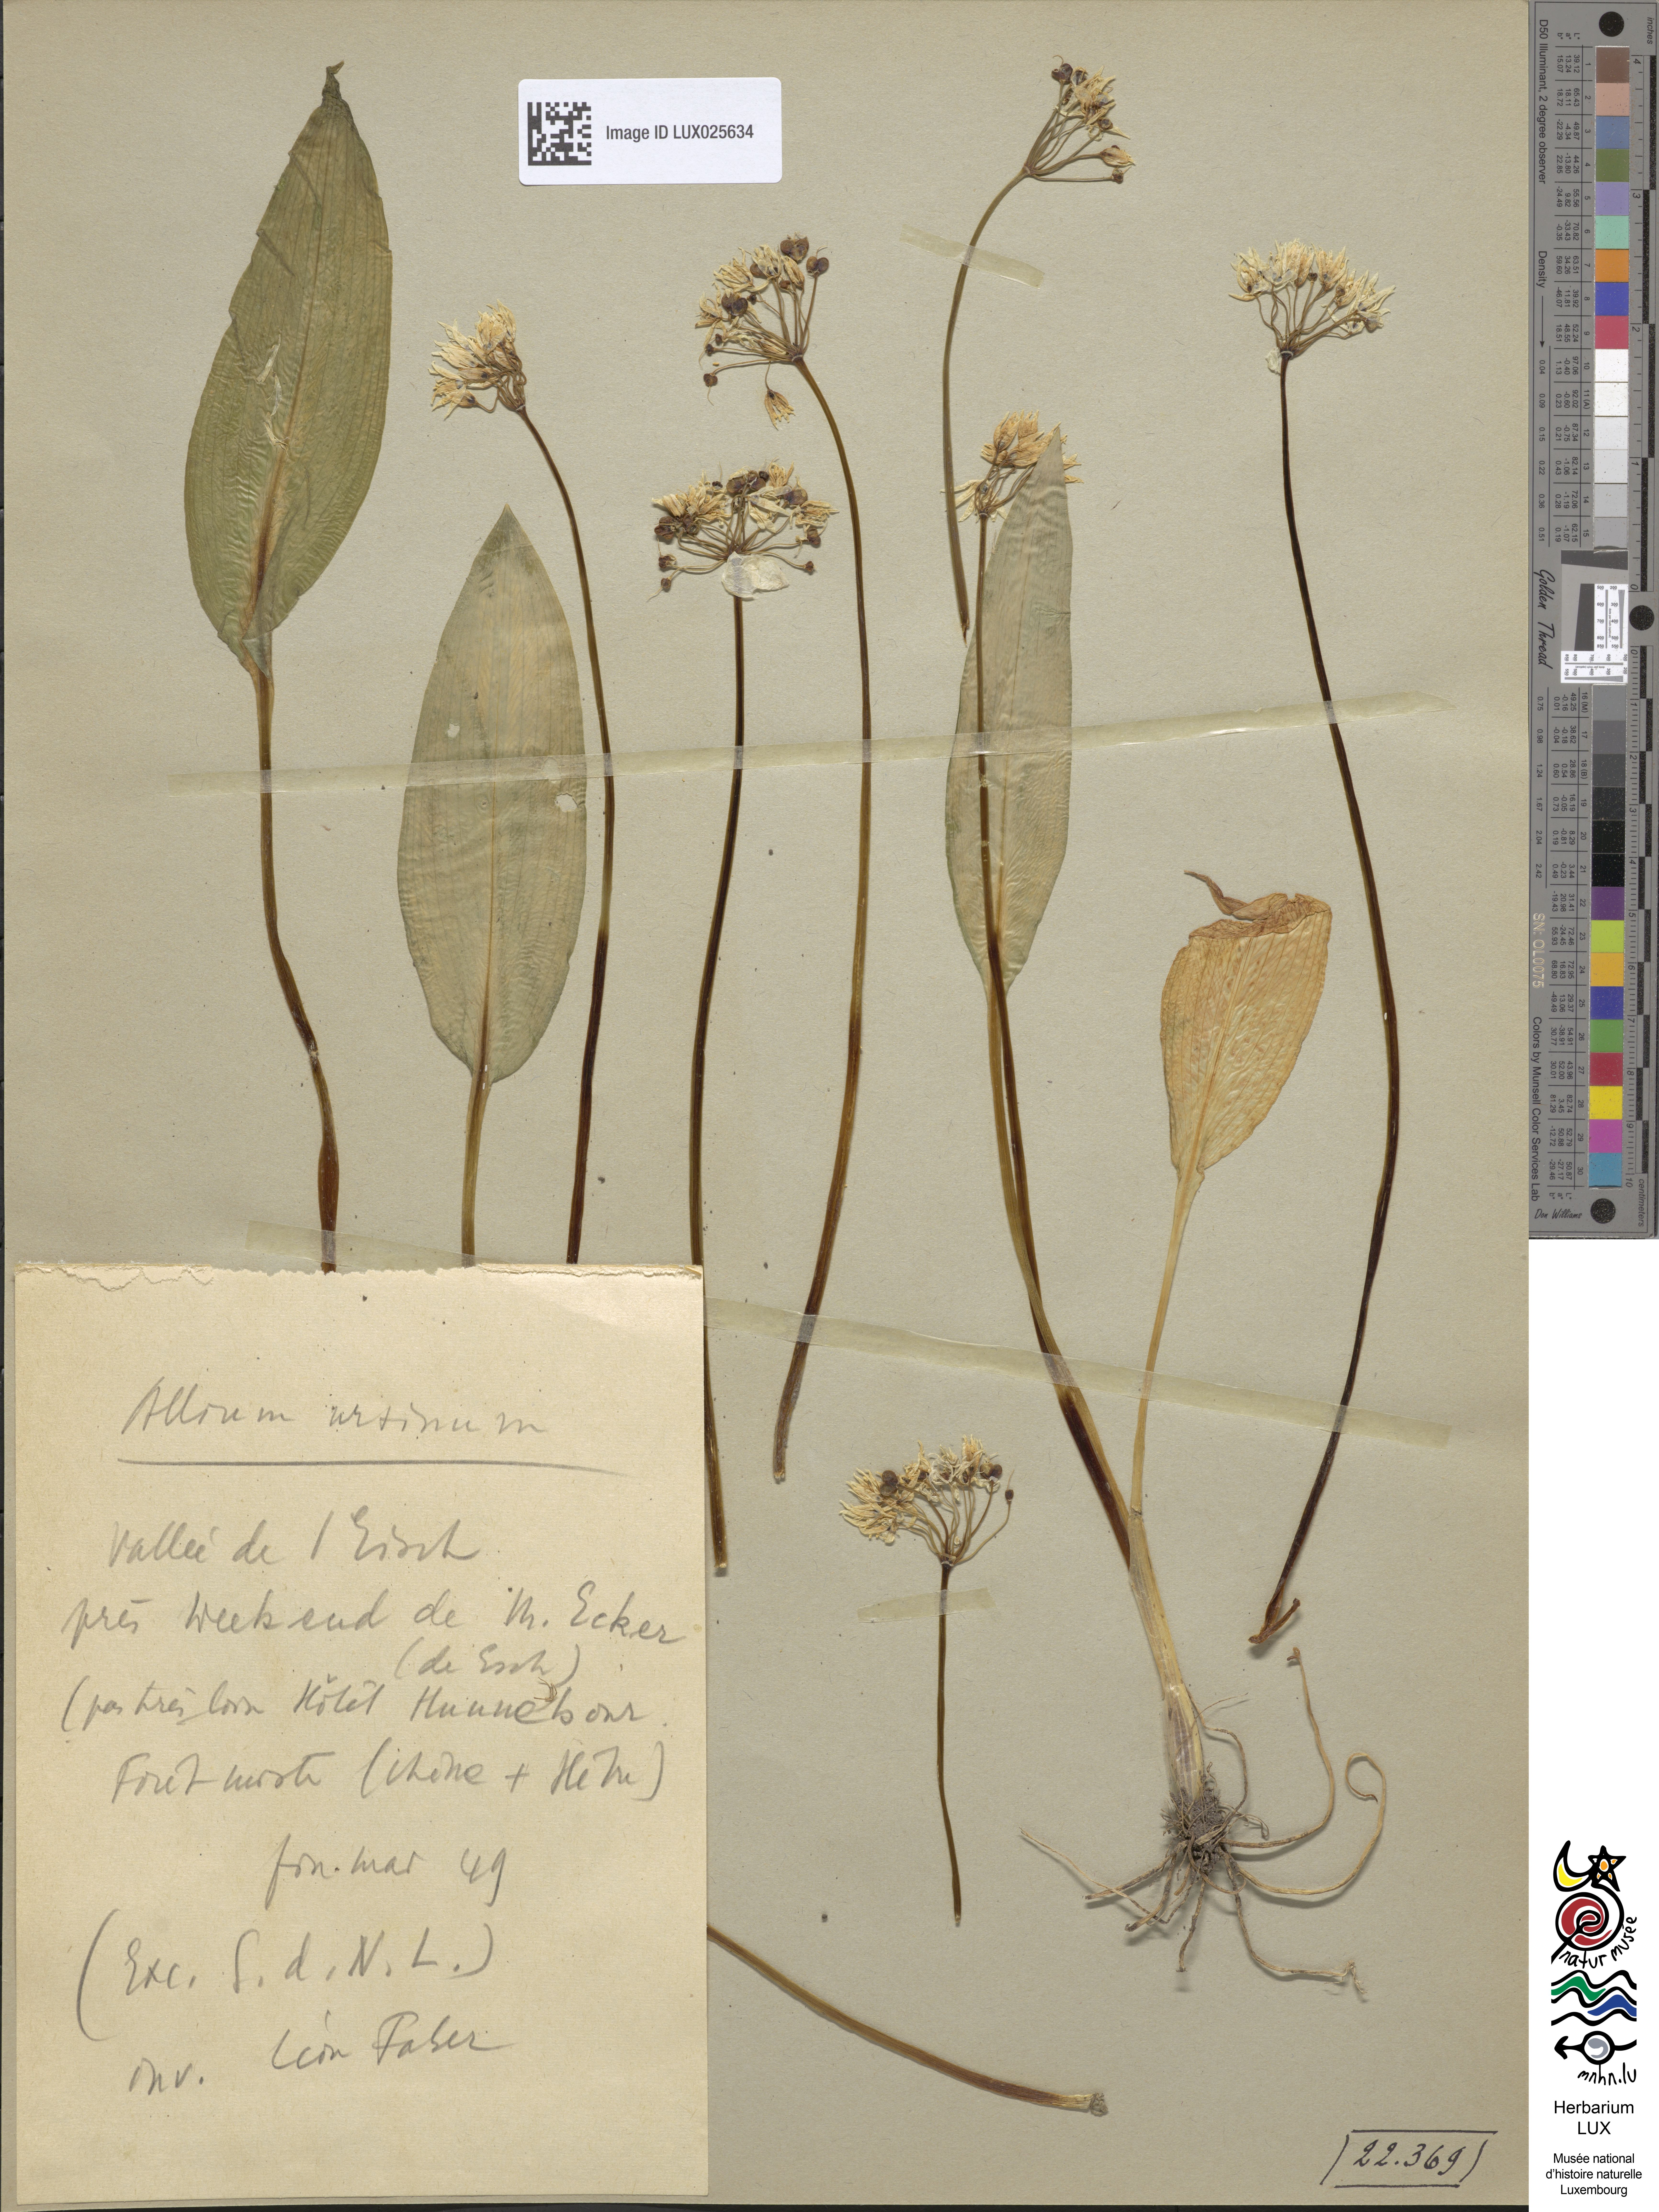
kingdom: Plantae
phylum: Tracheophyta
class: Liliopsida
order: Asparagales
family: Amaryllidaceae
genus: Allium
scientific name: Allium ursinum
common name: Ramsons
